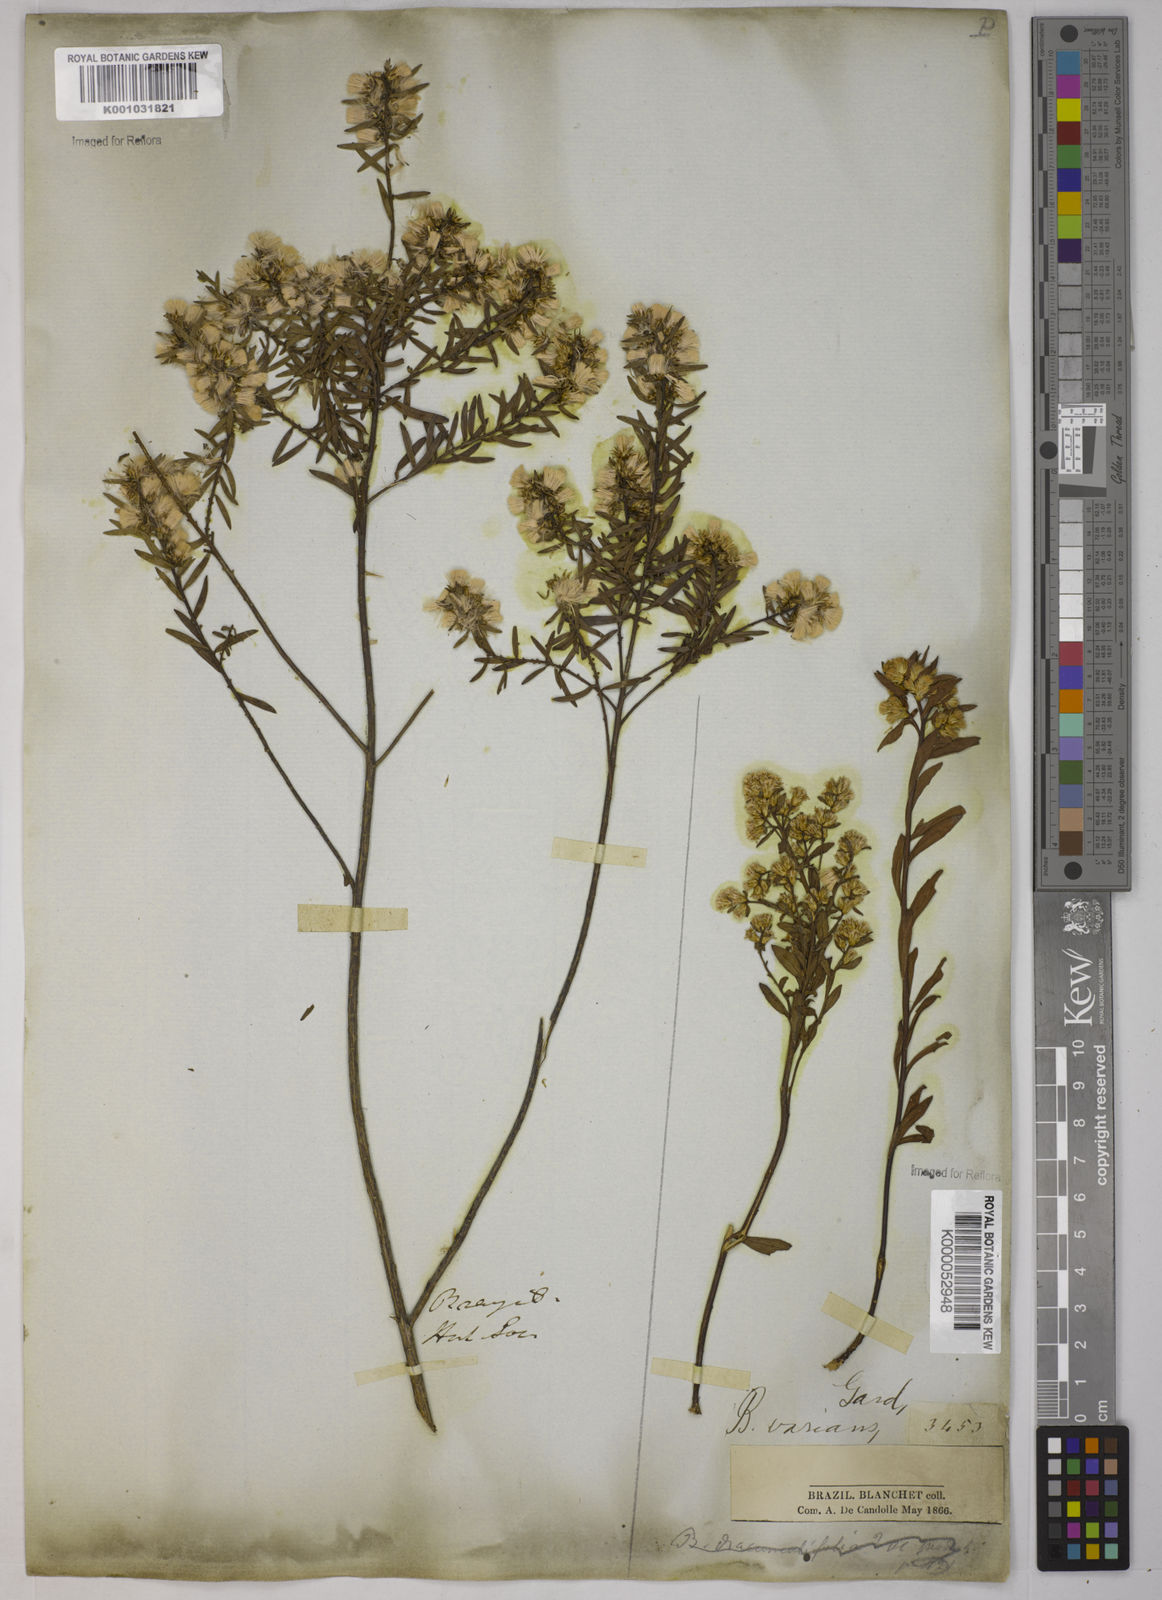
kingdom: Plantae
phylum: Tracheophyta
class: Magnoliopsida
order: Asterales
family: Asteraceae
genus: Baccharis
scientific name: Baccharis varians
